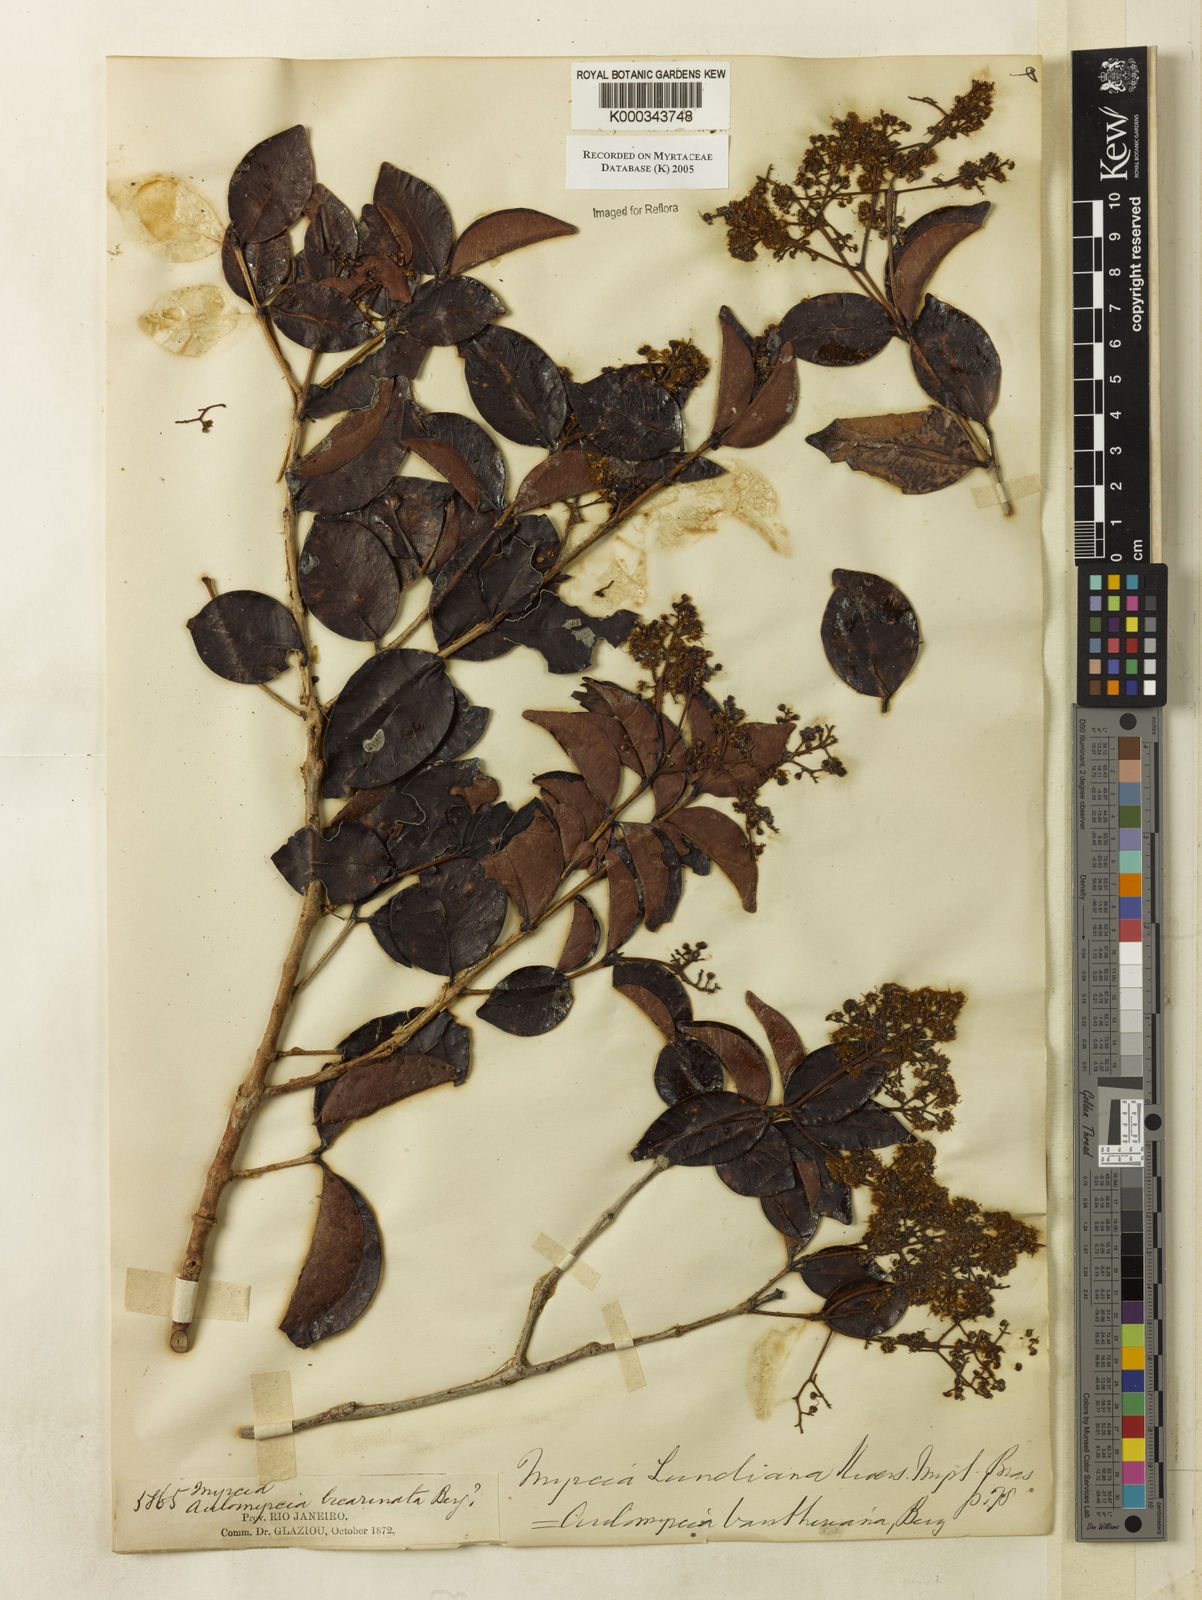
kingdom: Plantae
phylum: Tracheophyta
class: Magnoliopsida
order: Myrtales
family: Myrtaceae
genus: Myrcia
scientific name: Myrcia lundiana
